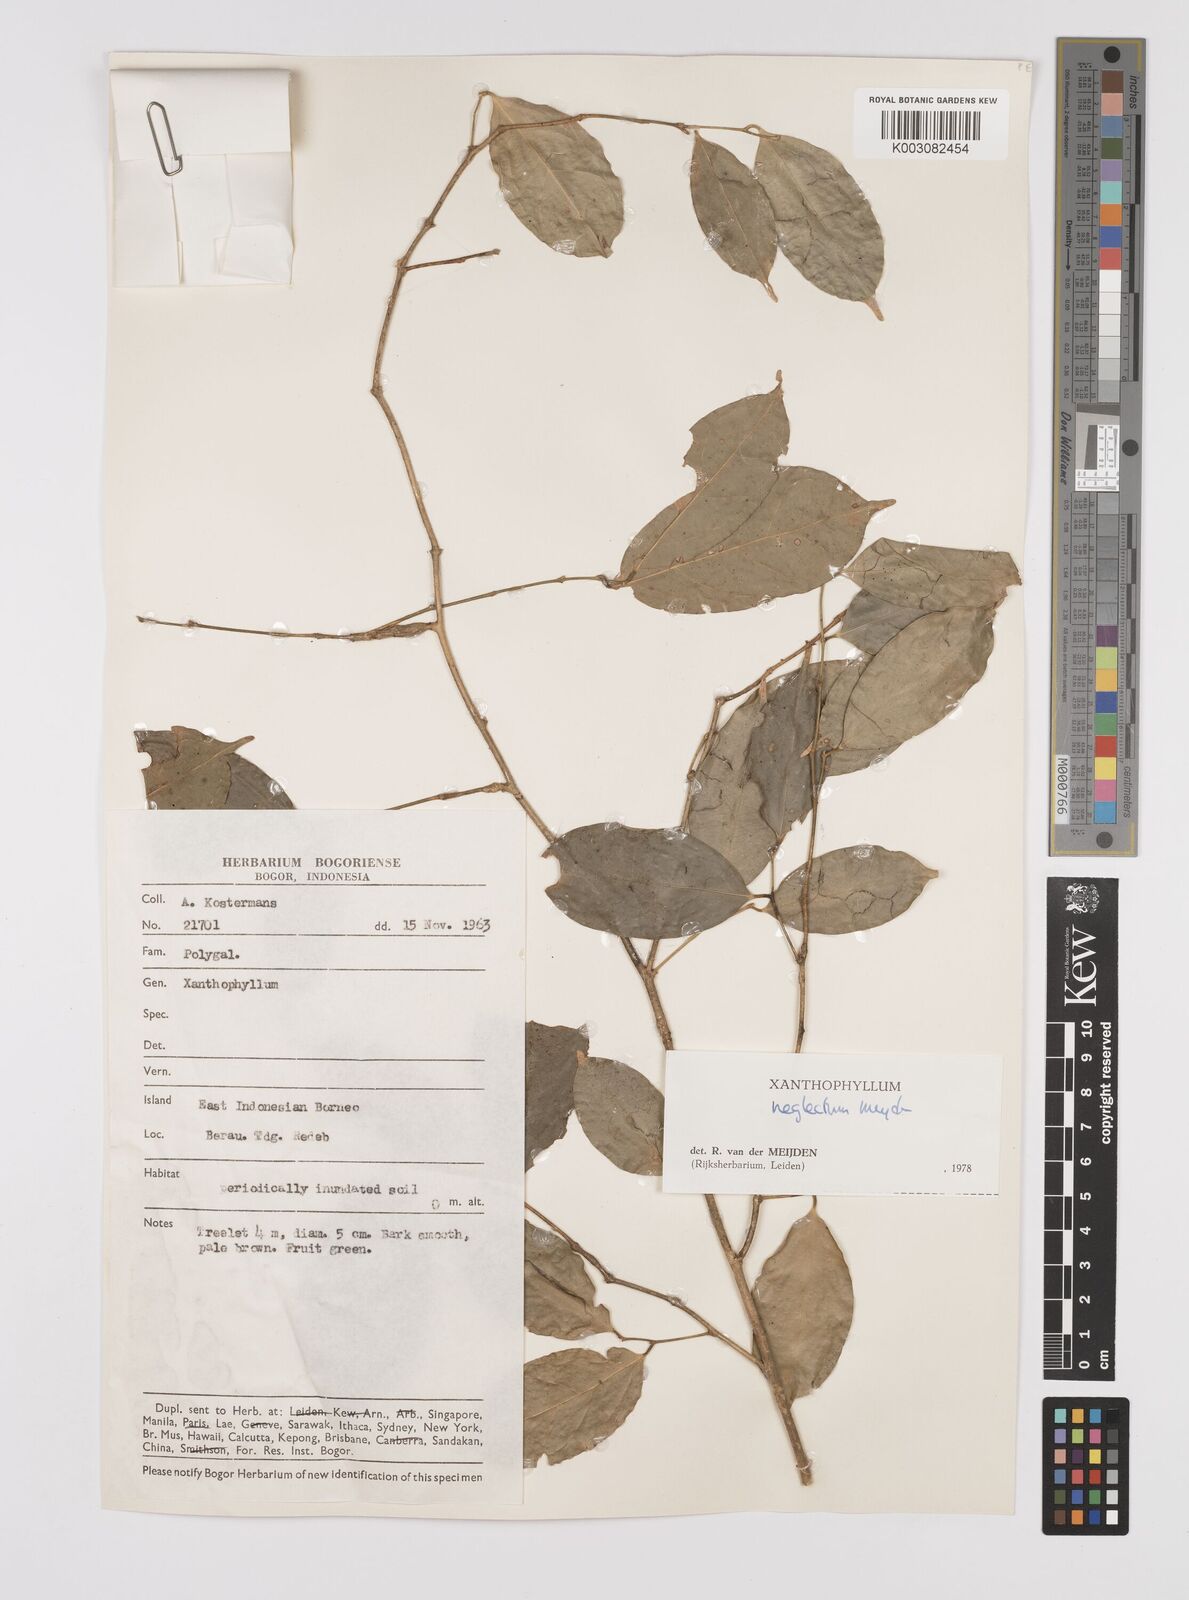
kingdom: Plantae
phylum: Tracheophyta
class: Magnoliopsida
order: Fabales
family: Polygalaceae
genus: Xanthophyllum
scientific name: Xanthophyllum neglectum
